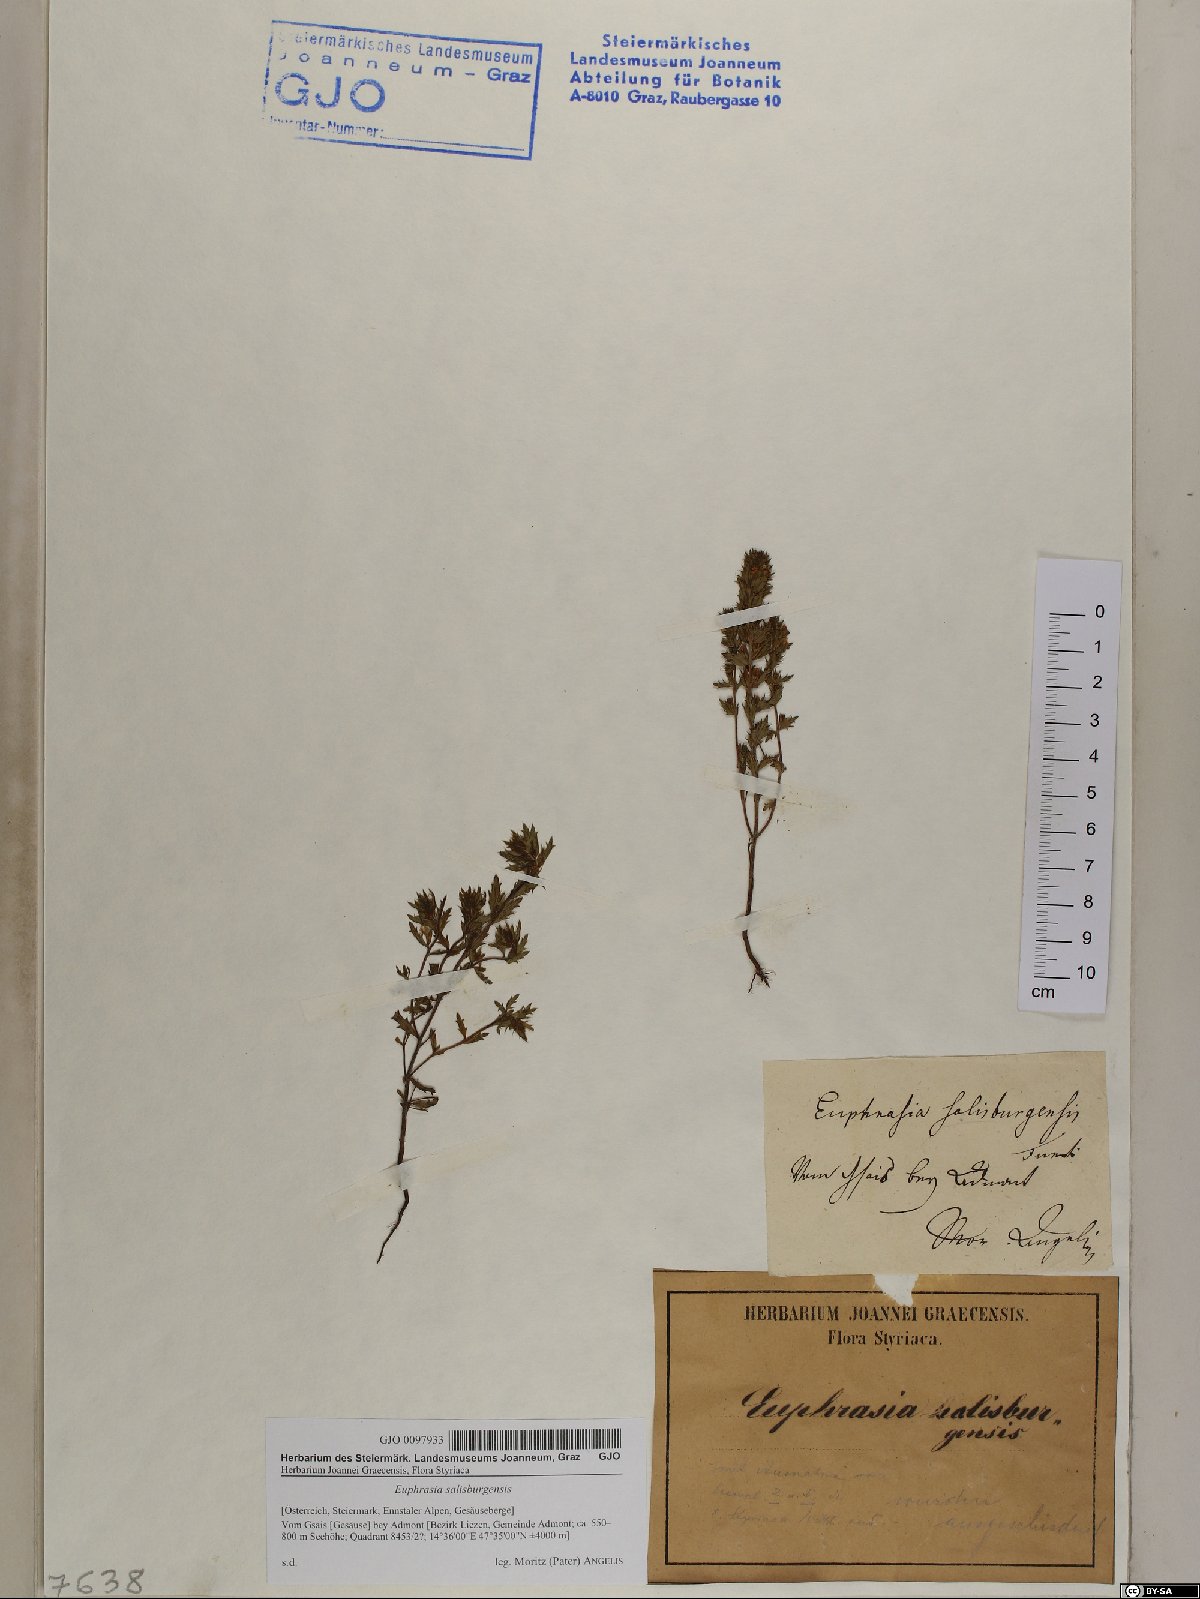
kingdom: Plantae
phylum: Tracheophyta
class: Magnoliopsida
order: Lamiales
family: Orobanchaceae
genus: Euphrasia
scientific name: Euphrasia salisburgensis
